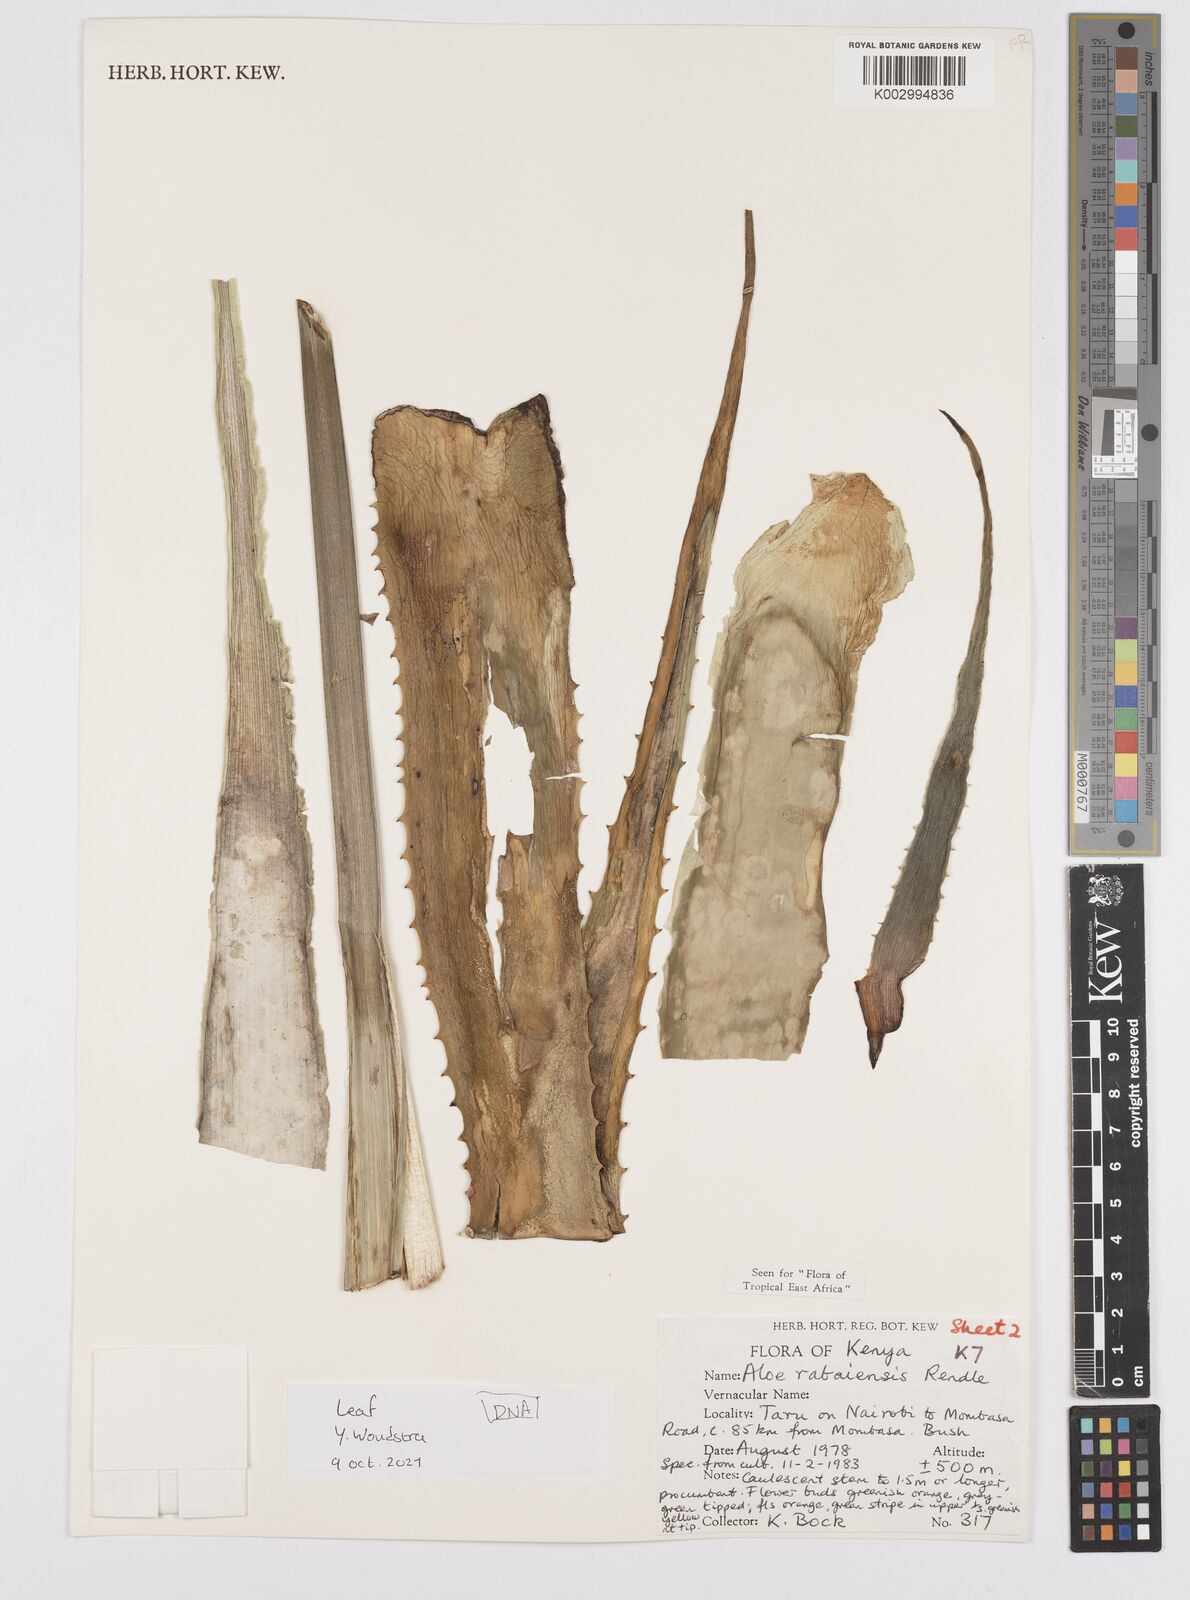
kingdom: Plantae
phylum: Tracheophyta
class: Liliopsida
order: Asparagales
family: Asphodelaceae
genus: Aloe
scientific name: Aloe rabaiensis
